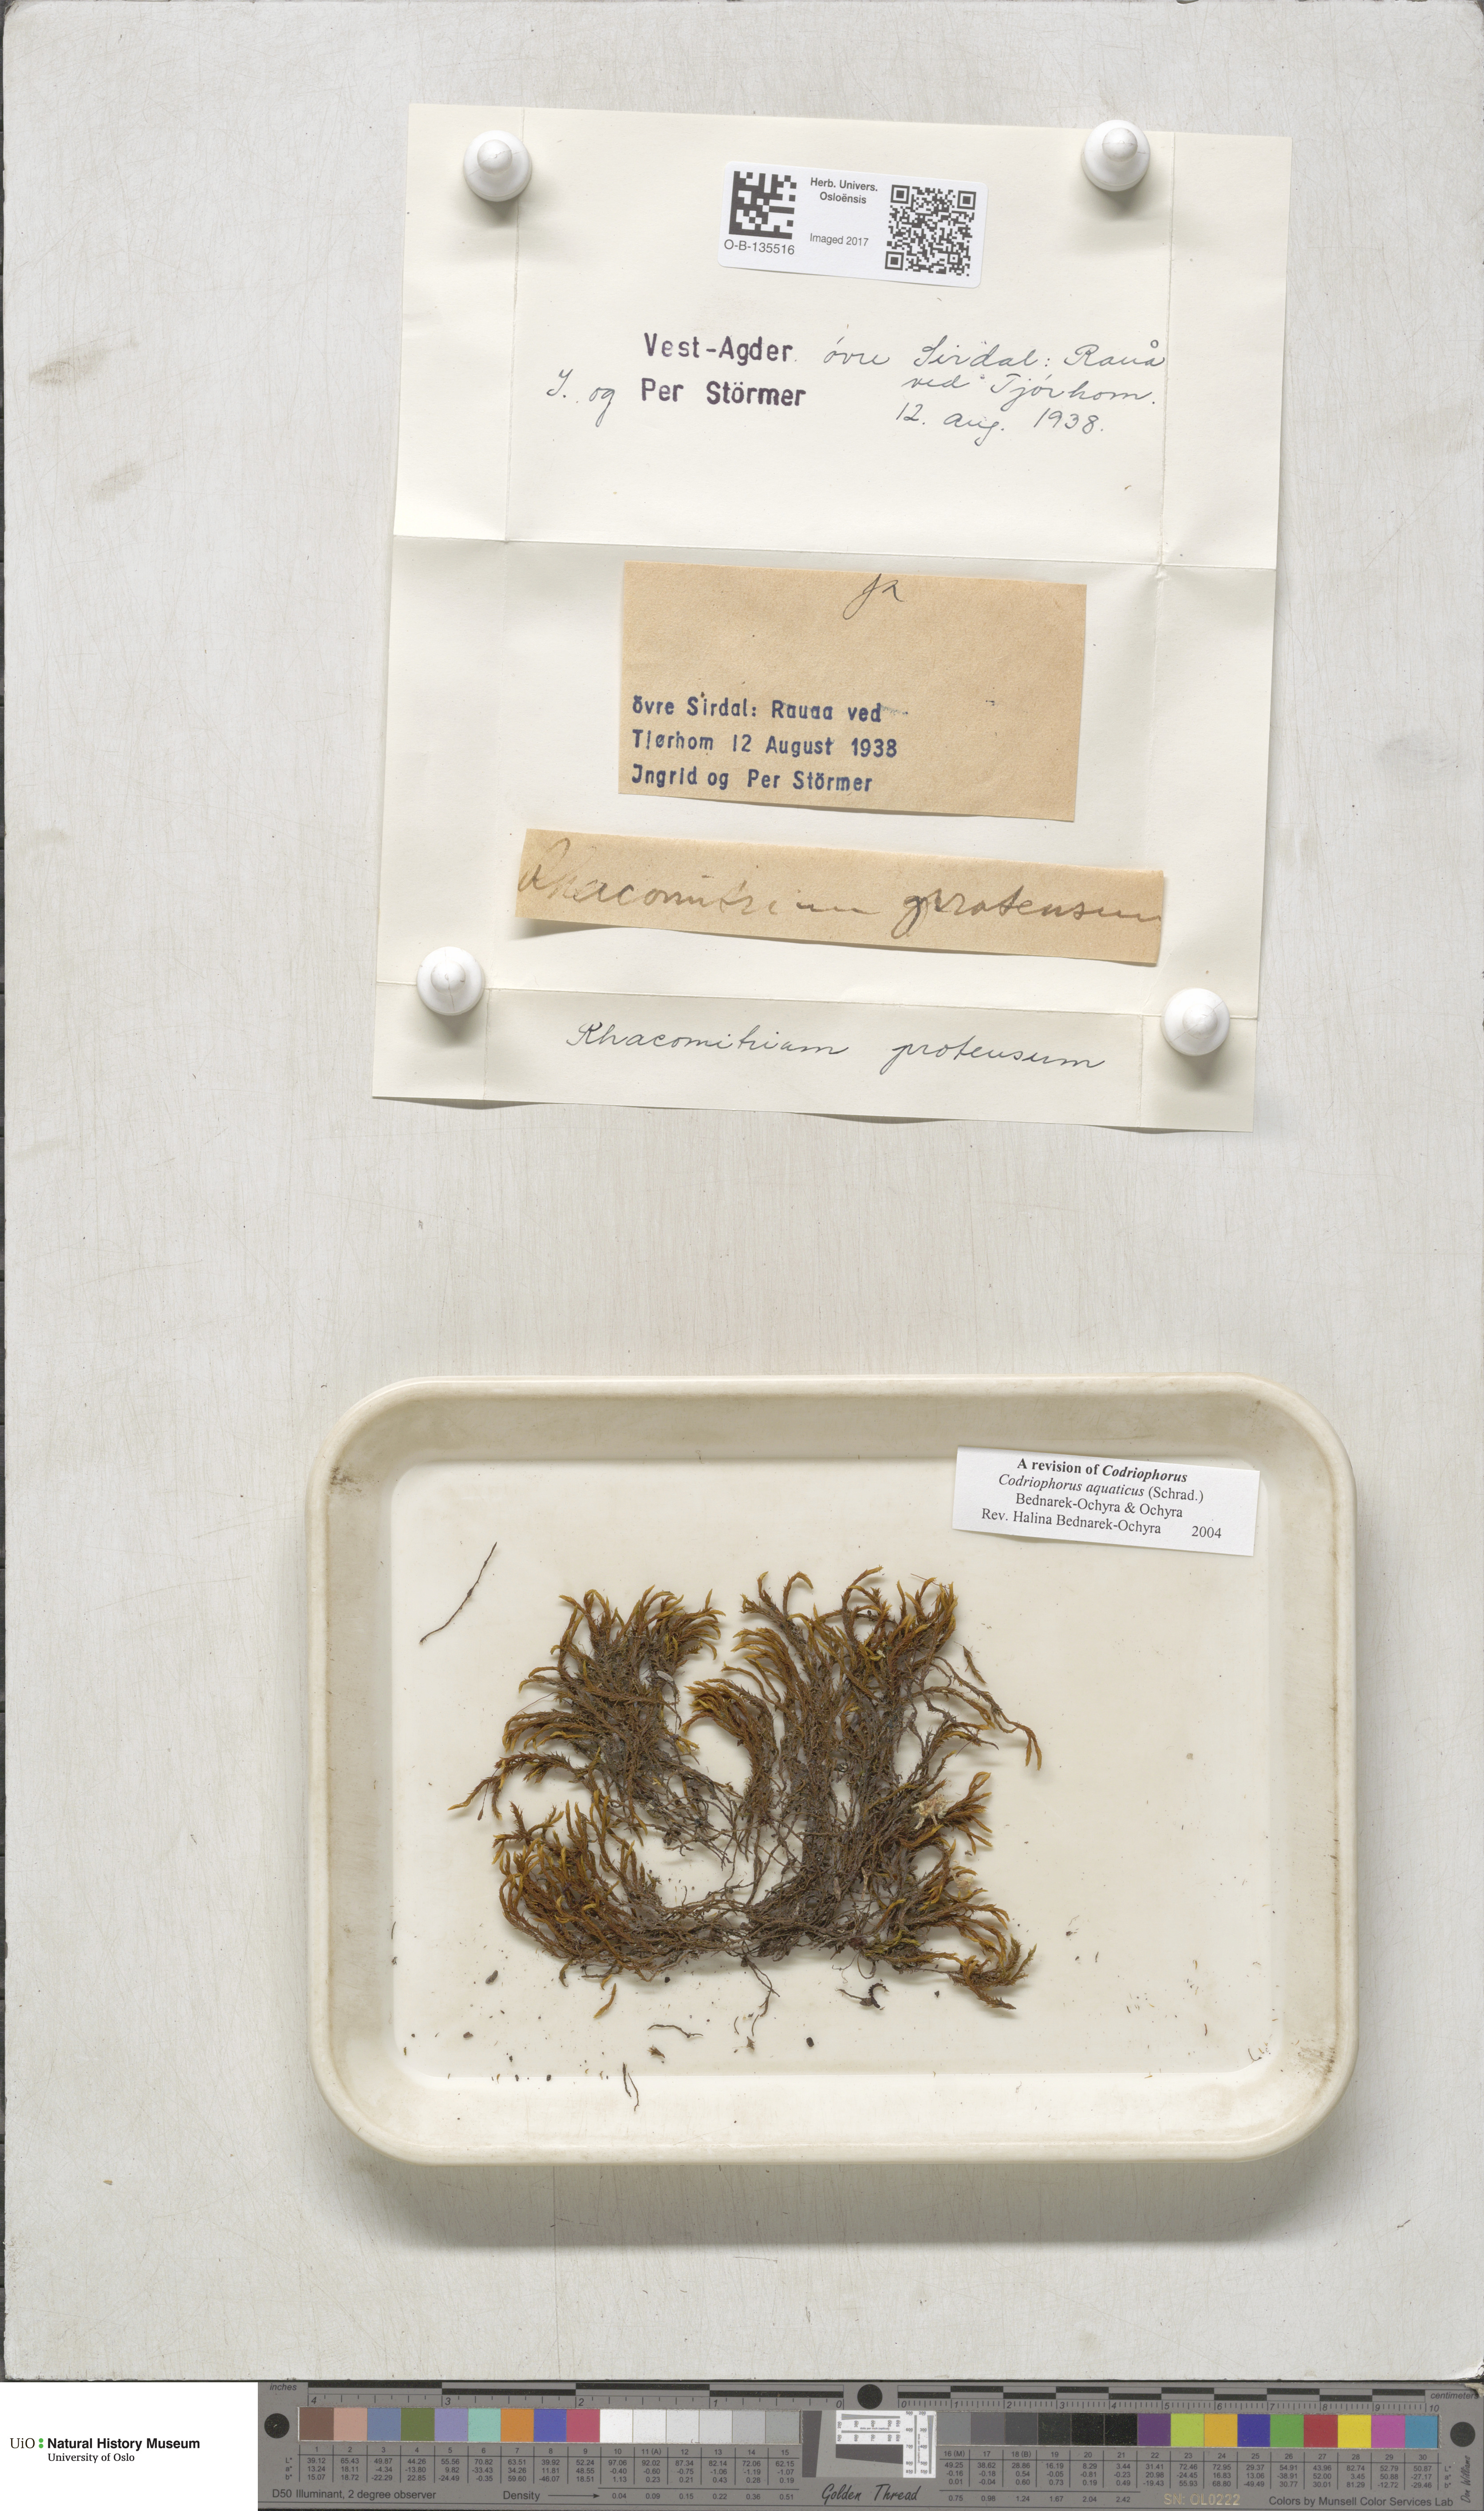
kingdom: Plantae
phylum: Bryophyta
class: Bryopsida
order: Grimmiales
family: Grimmiaceae
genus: Codriophorus
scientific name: Codriophorus aquaticus
